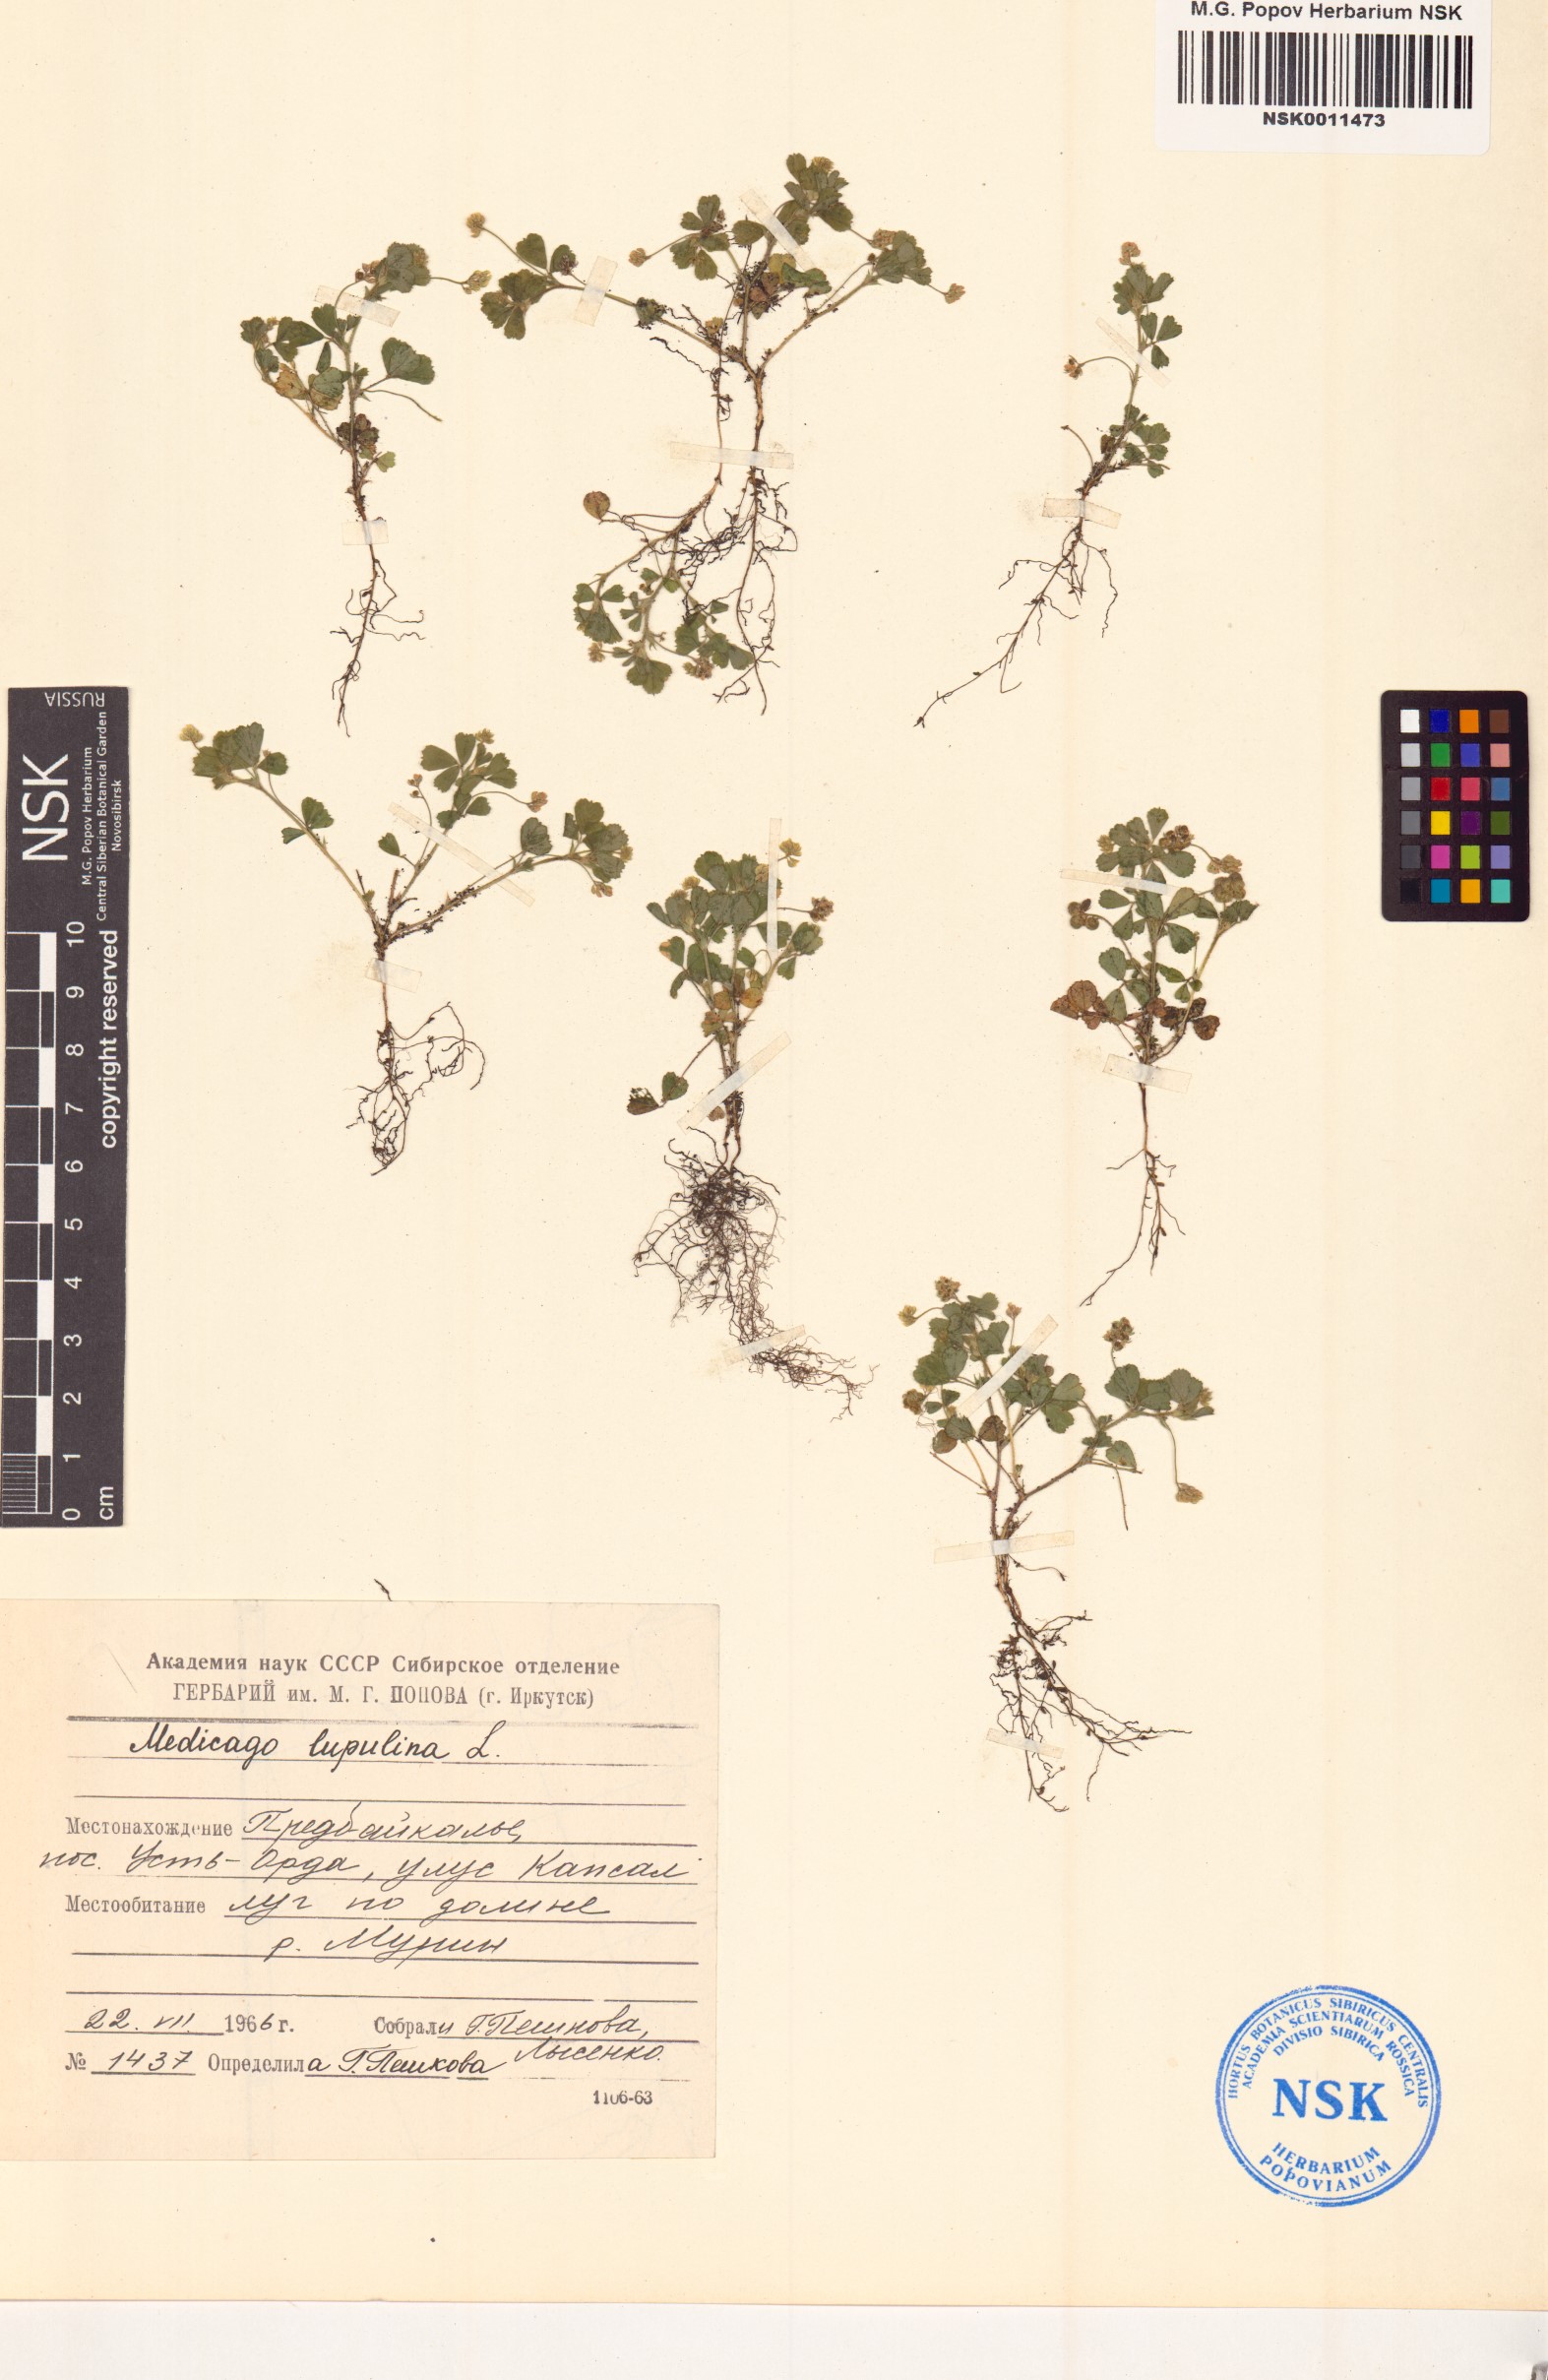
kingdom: Plantae
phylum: Tracheophyta
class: Magnoliopsida
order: Fabales
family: Fabaceae
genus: Medicago
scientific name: Medicago lupulina
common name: Black medick
